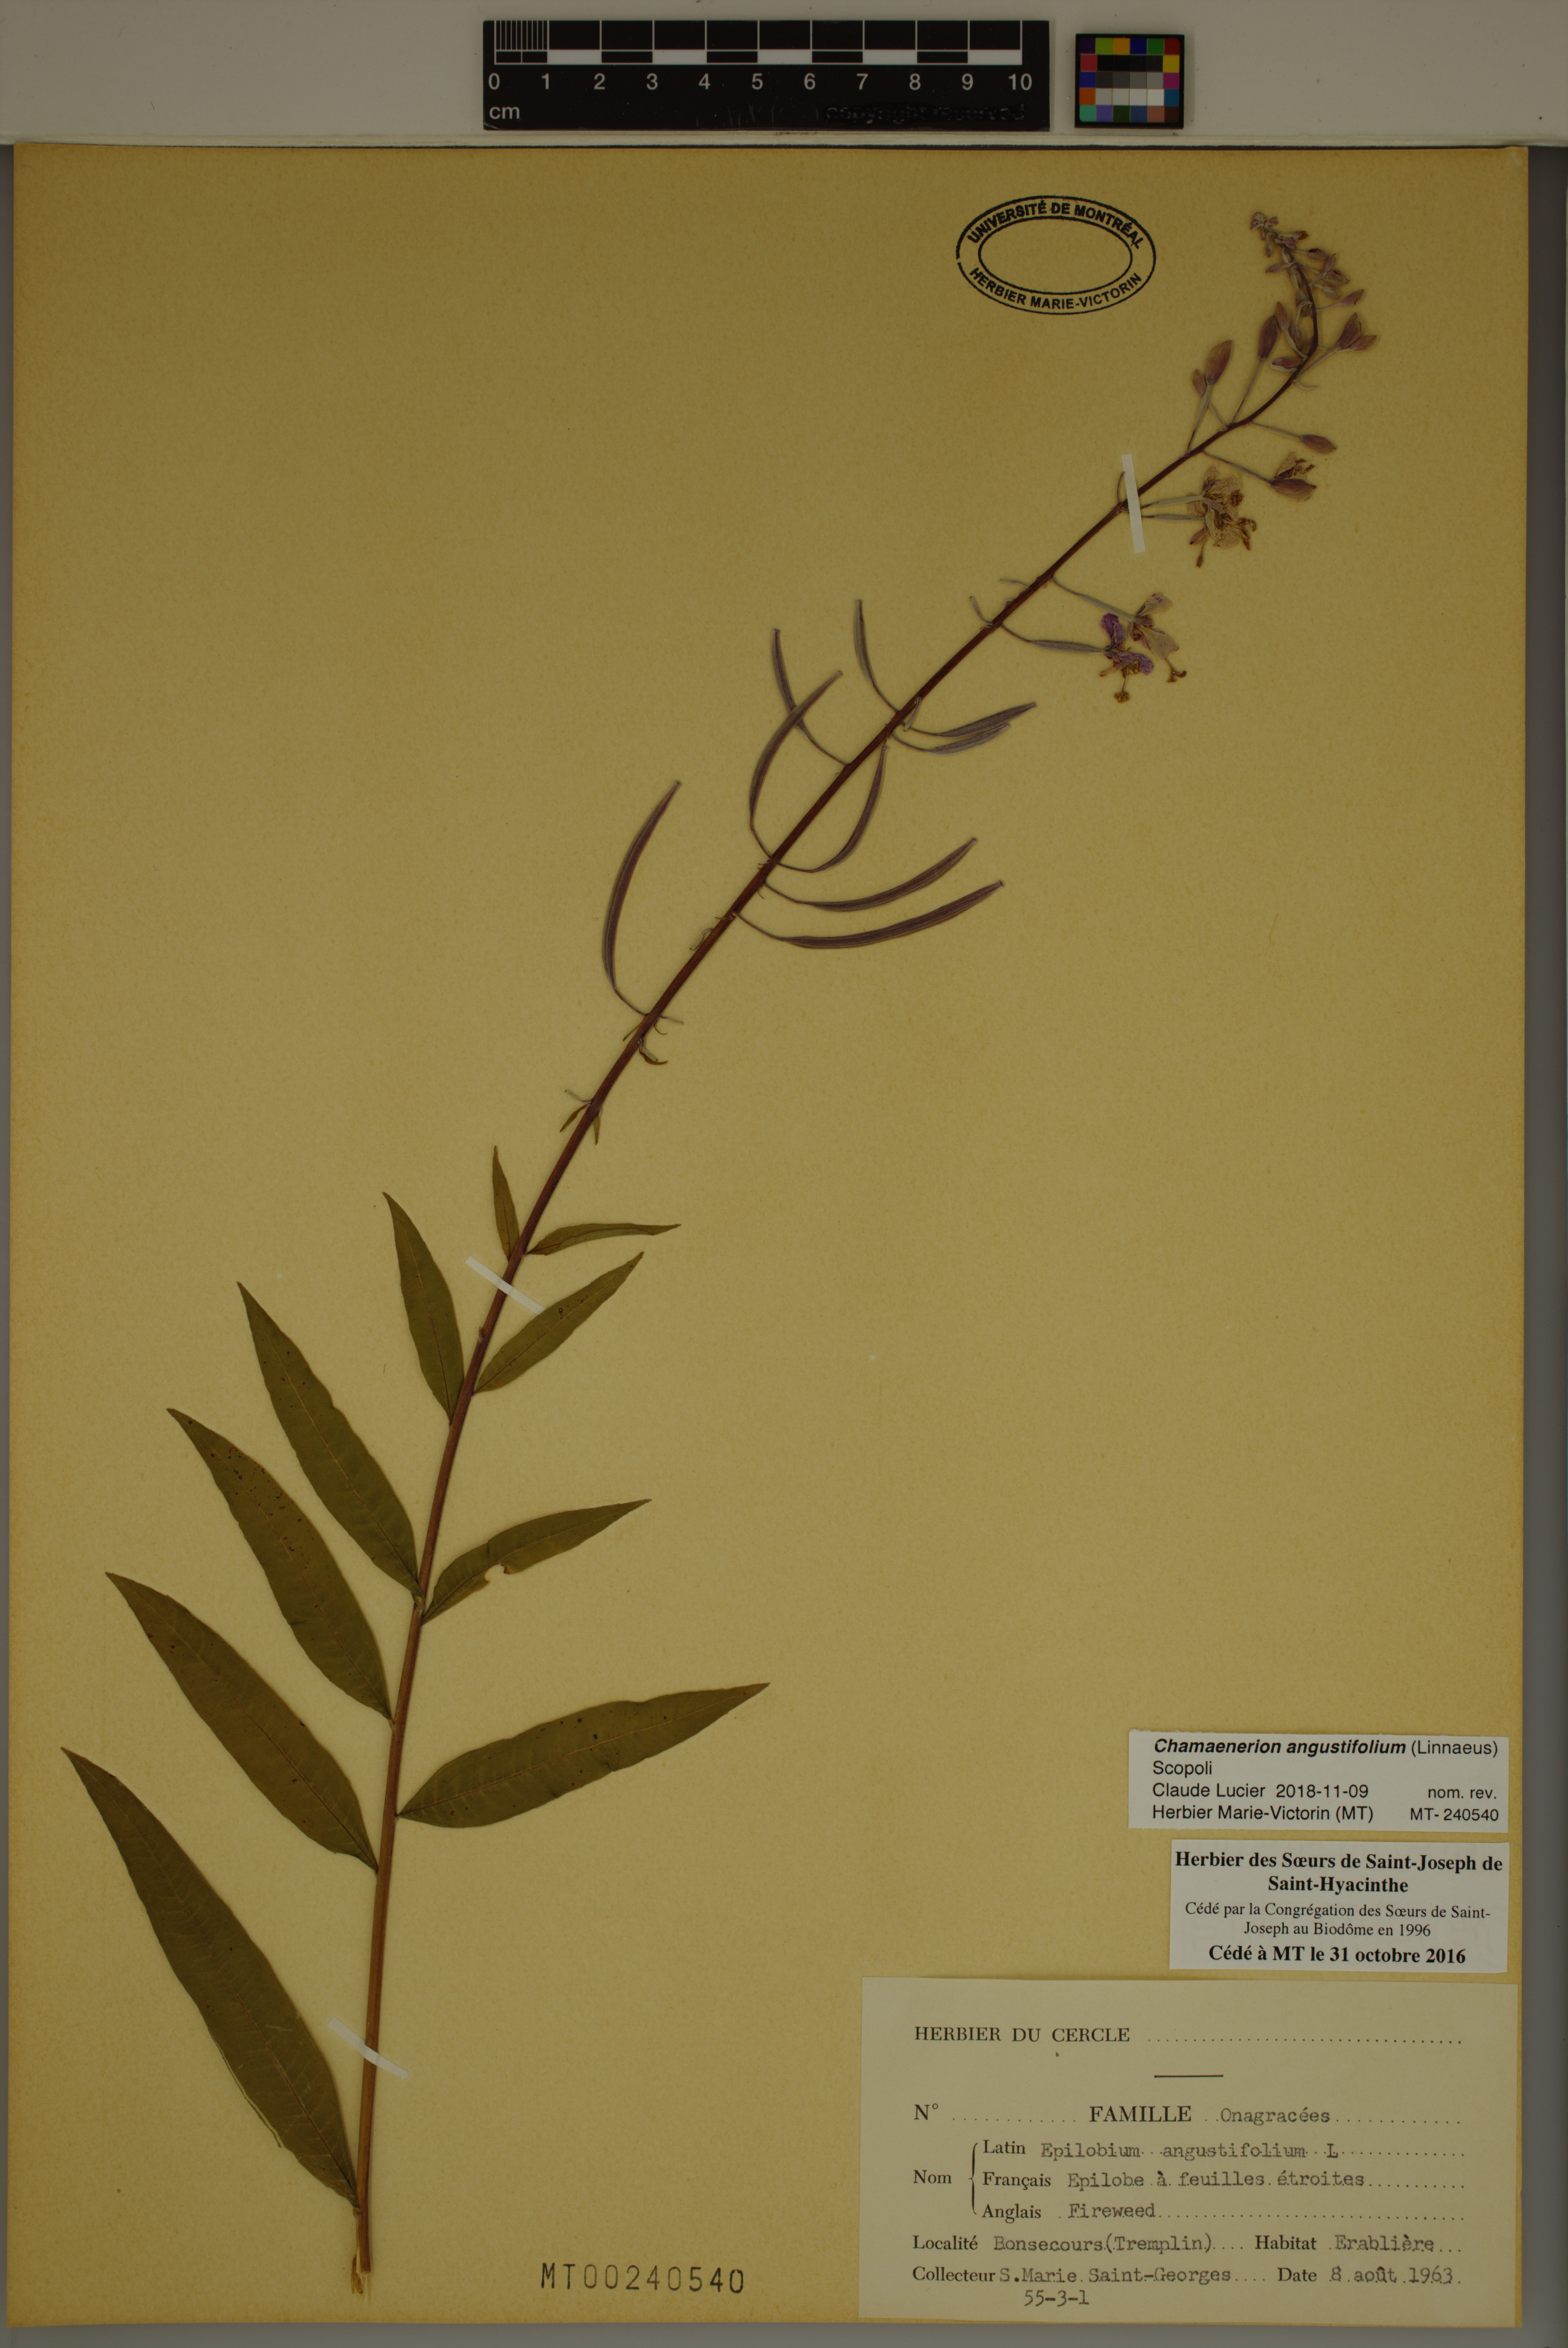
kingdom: Plantae
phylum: Tracheophyta
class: Magnoliopsida
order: Myrtales
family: Onagraceae
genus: Chamaenerion
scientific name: Chamaenerion angustifolium
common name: Fireweed
